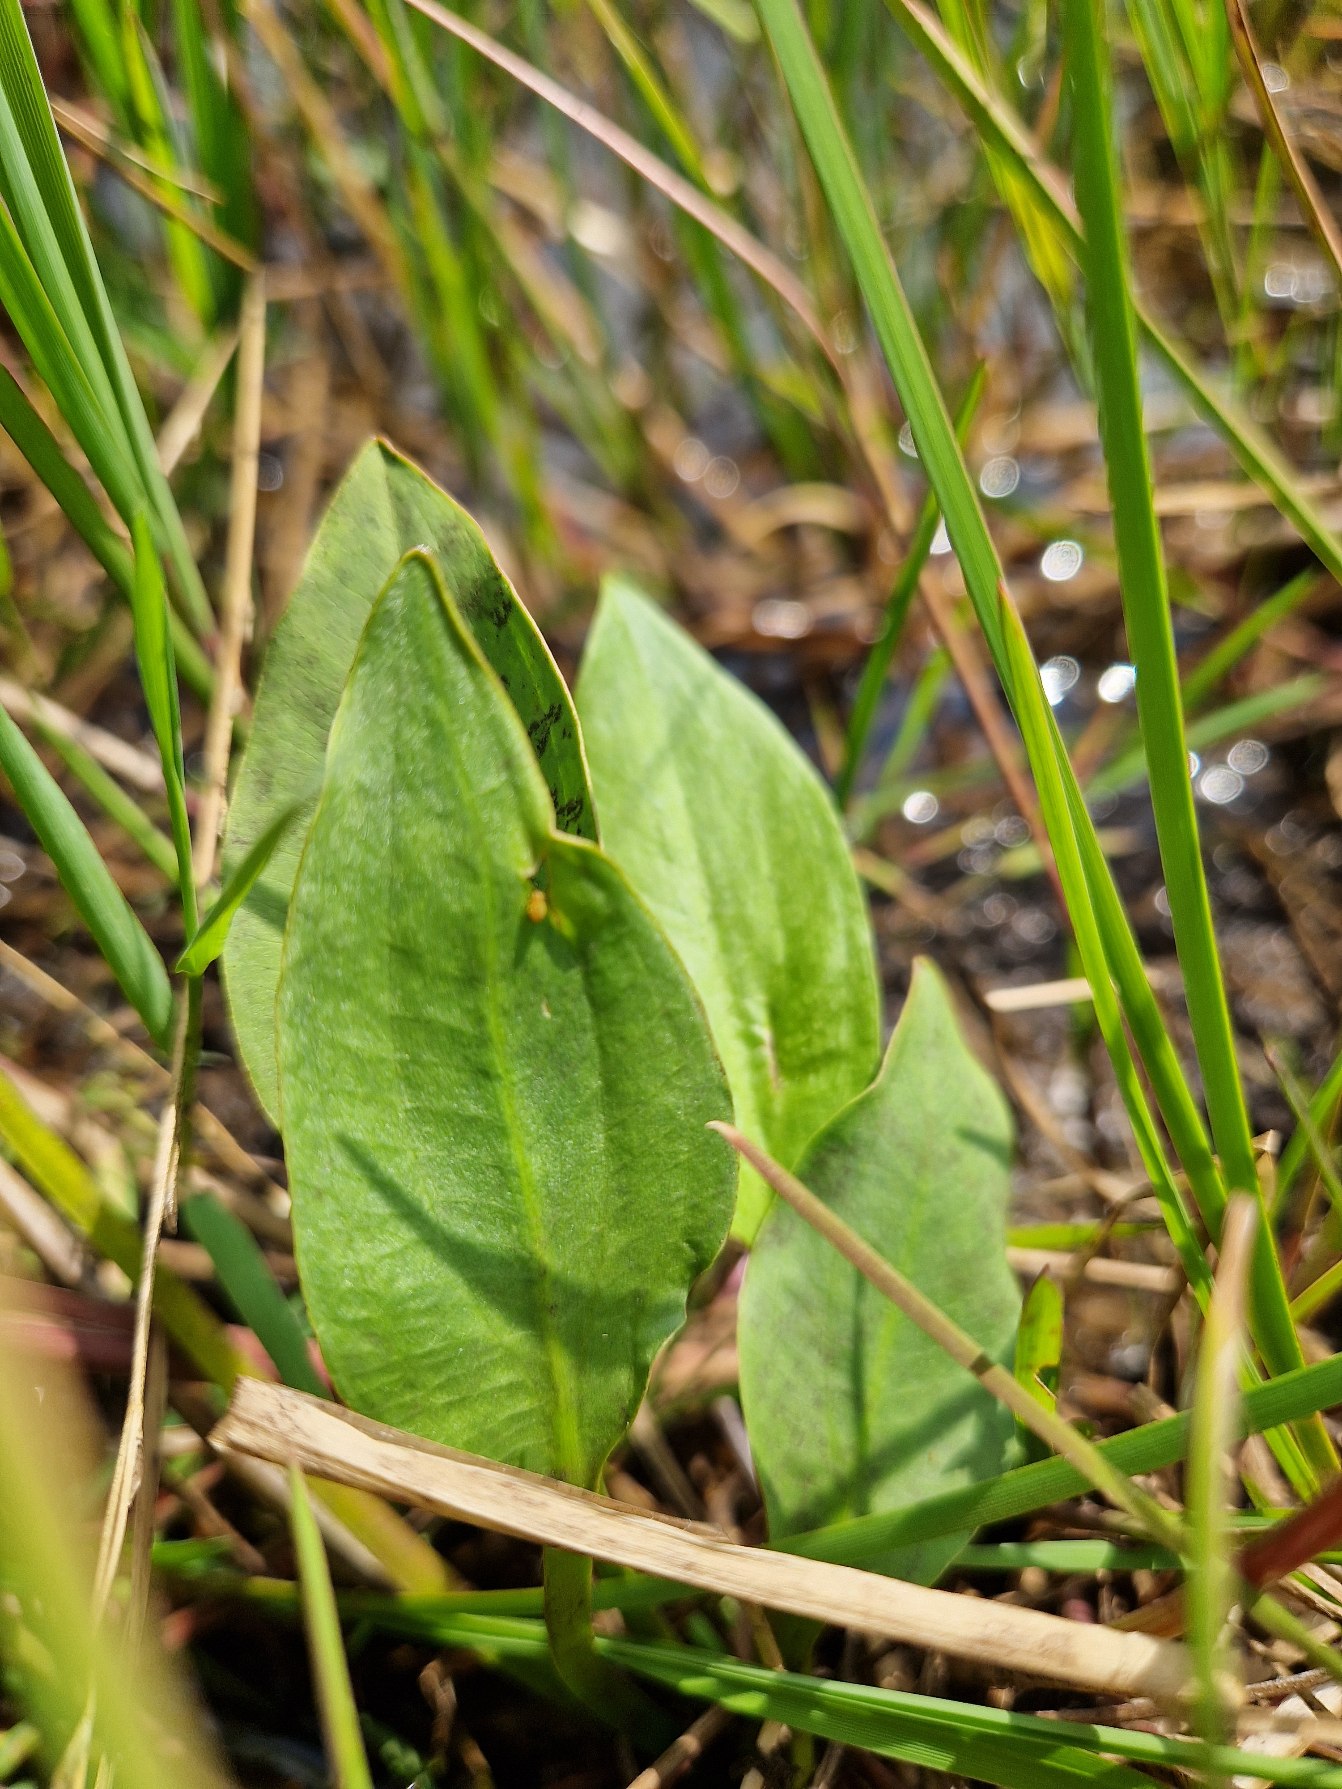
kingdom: Plantae
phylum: Tracheophyta
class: Liliopsida
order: Alismatales
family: Alismataceae
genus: Alisma
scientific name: Alisma plantago-aquatica
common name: Vejbred-skeblad
